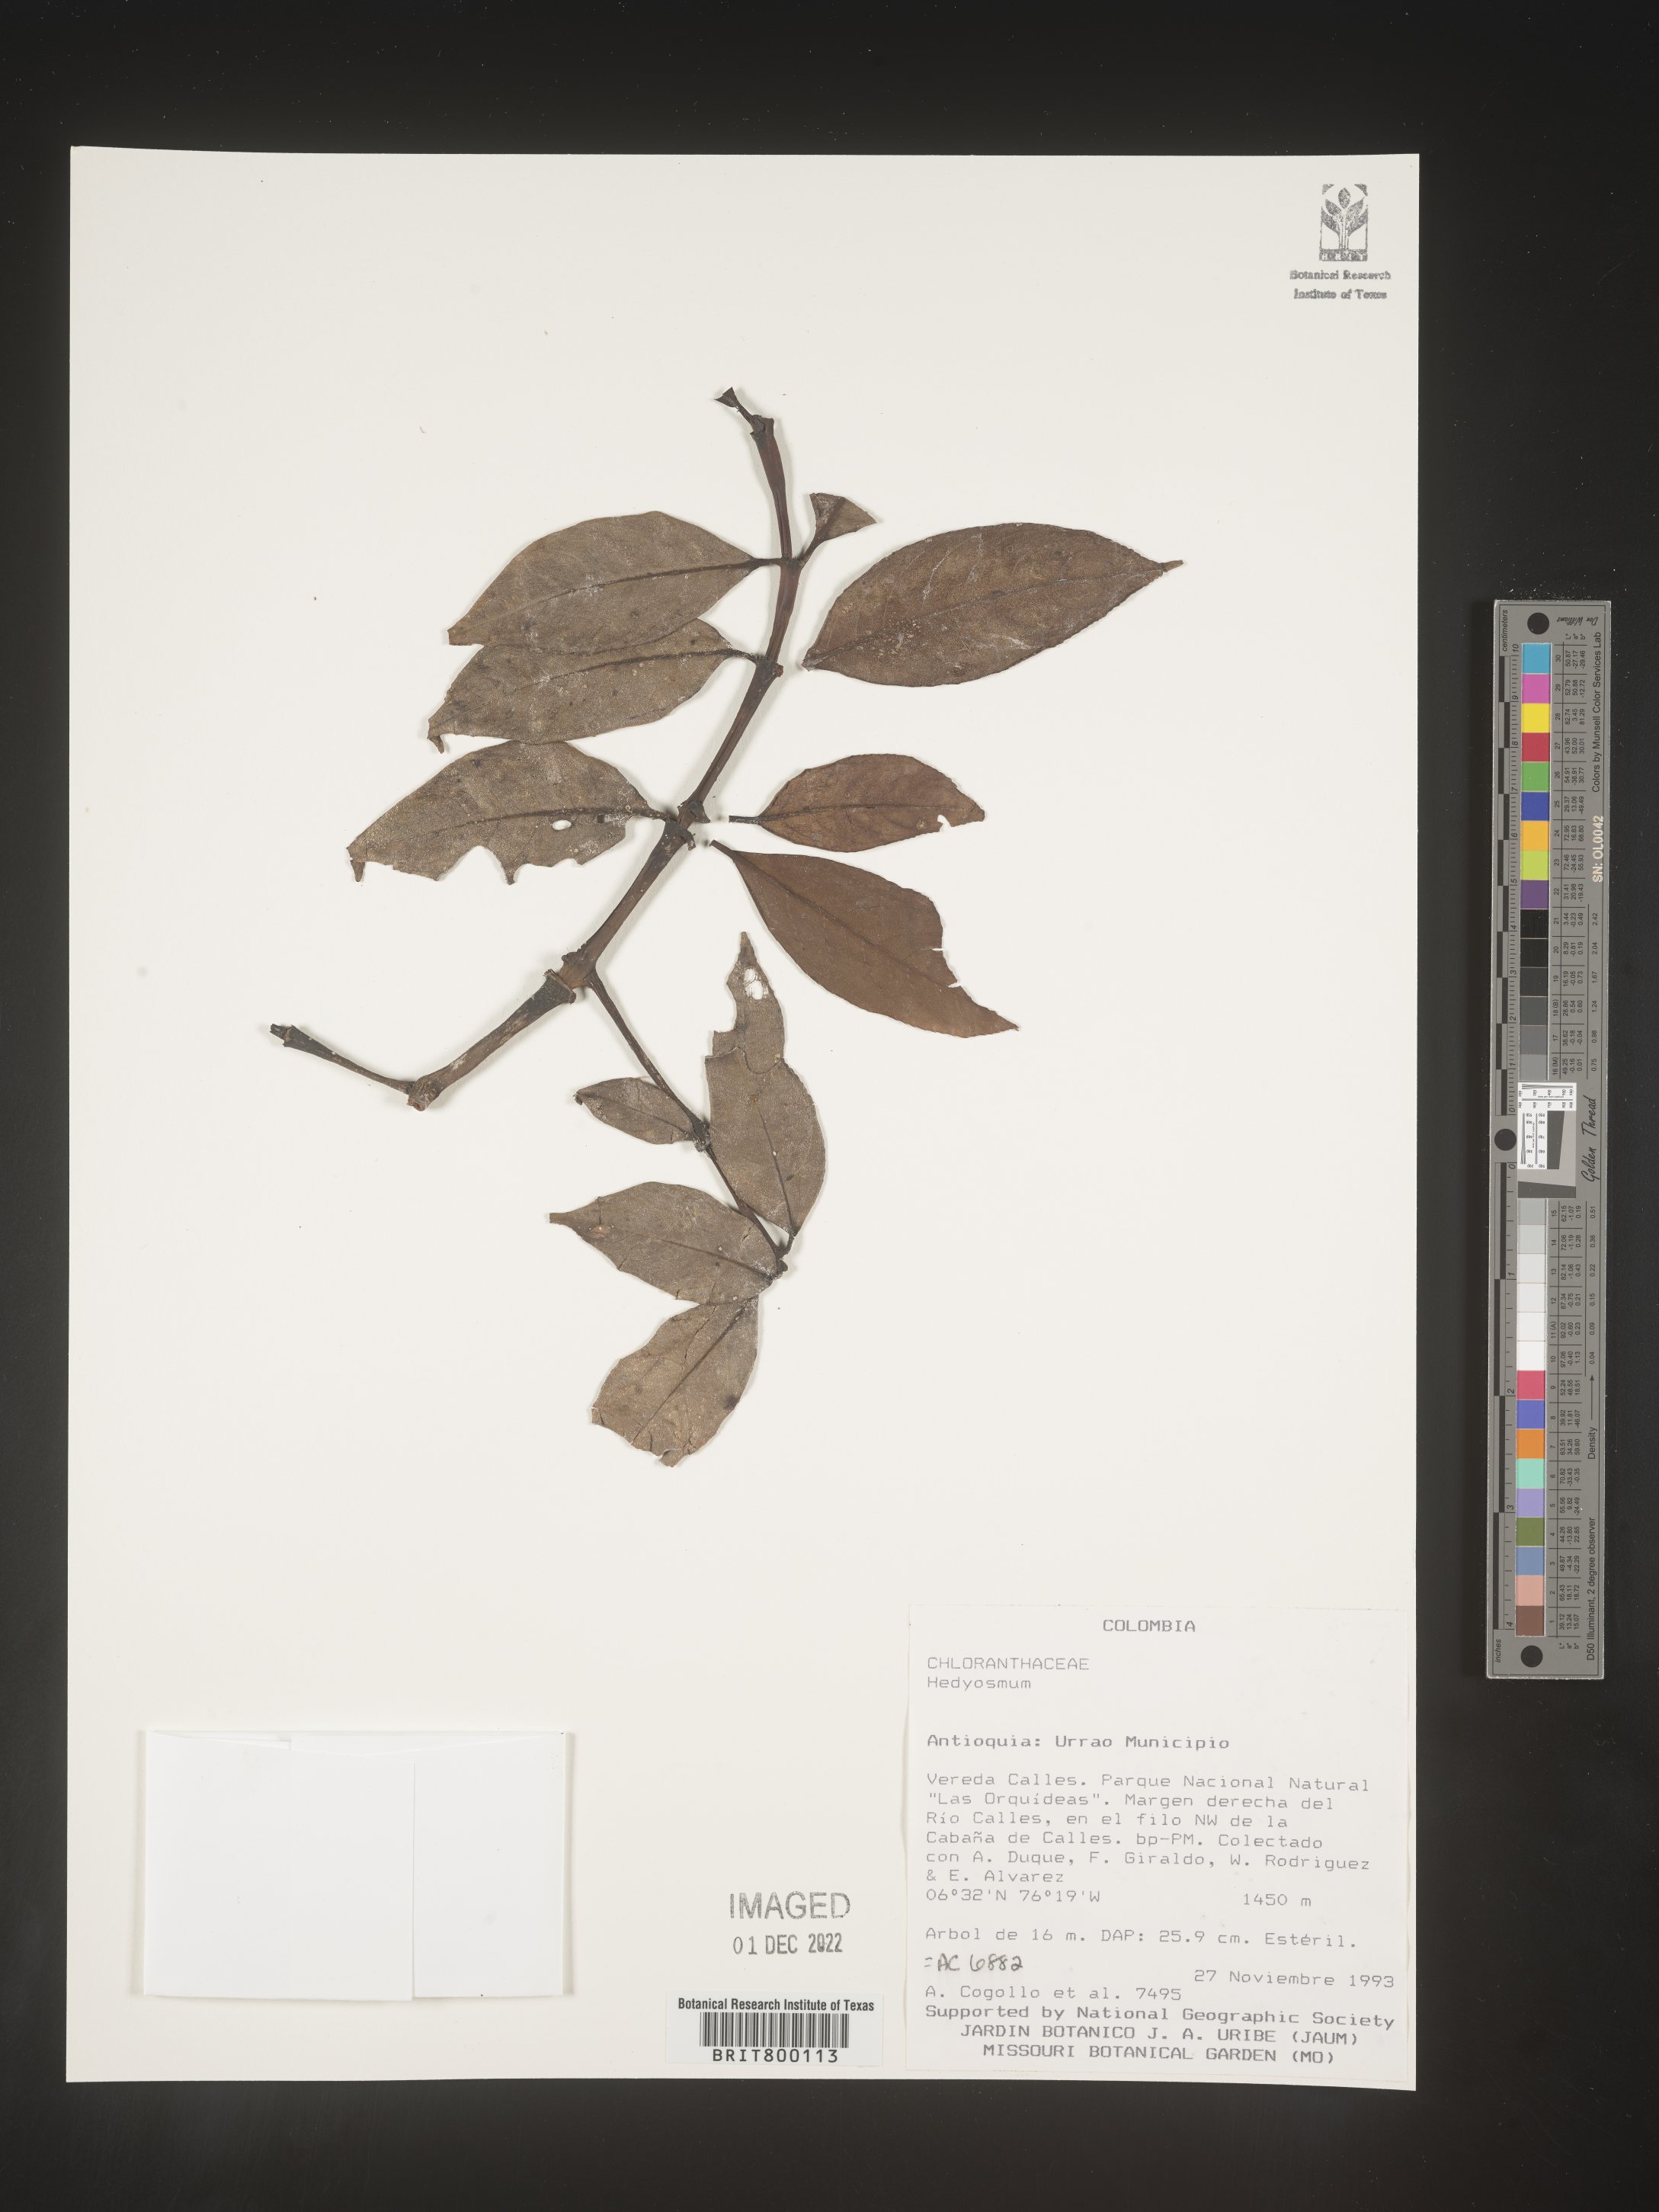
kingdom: Plantae
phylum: Tracheophyta
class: Magnoliopsida
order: Chloranthales
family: Chloranthaceae
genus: Hedyosmum
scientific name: Hedyosmum
